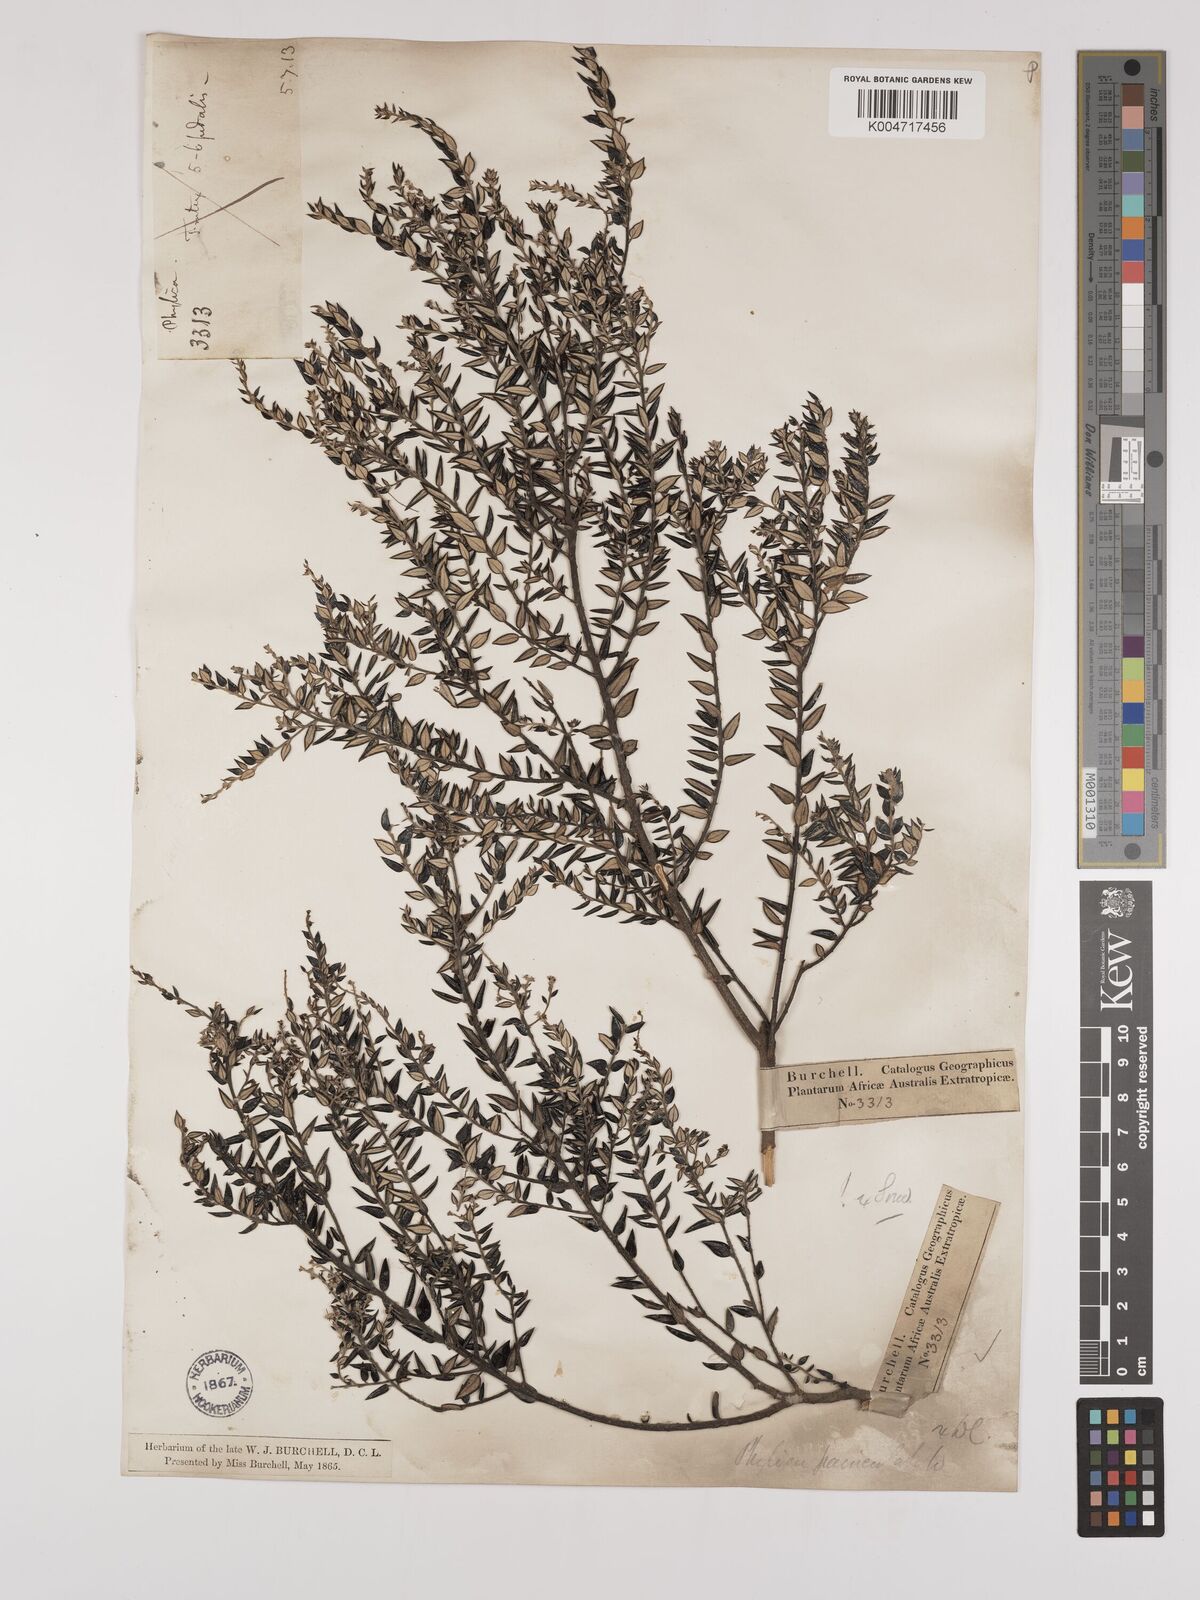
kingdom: Plantae
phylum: Tracheophyta
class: Magnoliopsida
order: Rosales
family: Rhamnaceae
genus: Phylica
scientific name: Phylica paniculata
